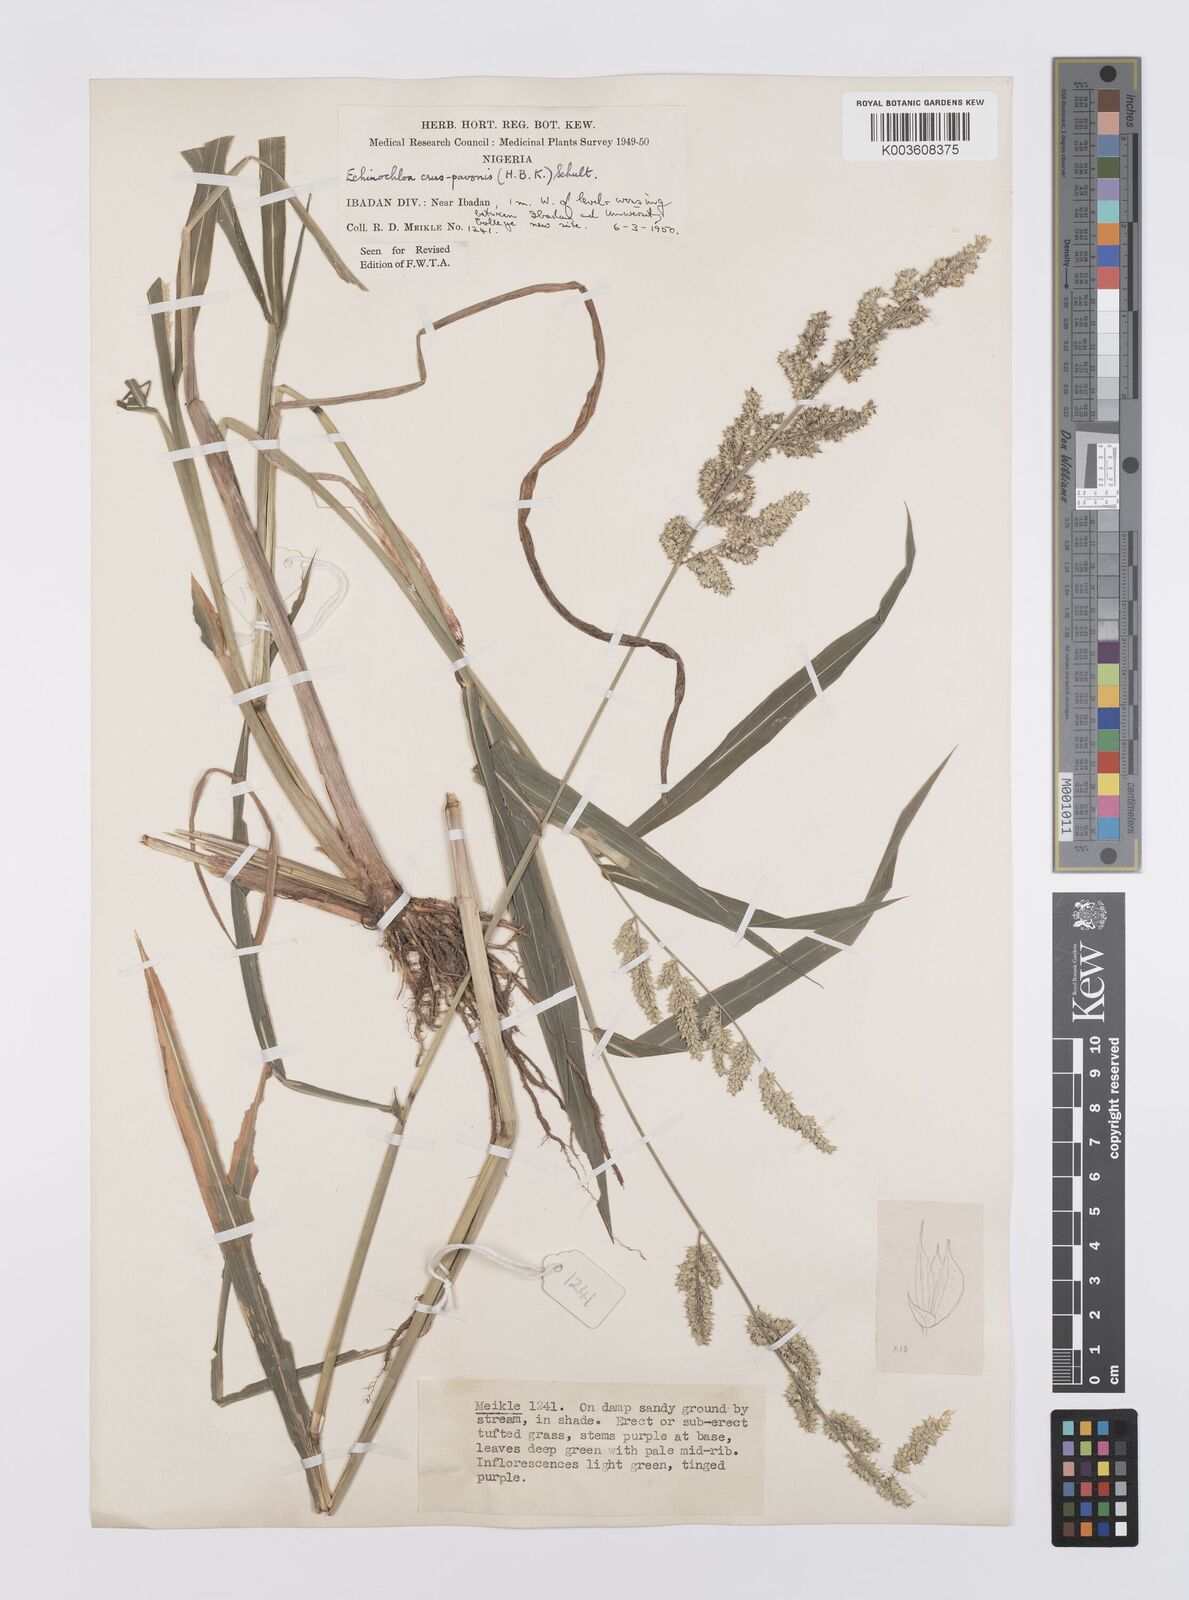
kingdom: Plantae
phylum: Tracheophyta
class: Liliopsida
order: Poales
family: Poaceae
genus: Echinochloa
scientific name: Echinochloa crus-pavonis
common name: Gulf cockspur grass
